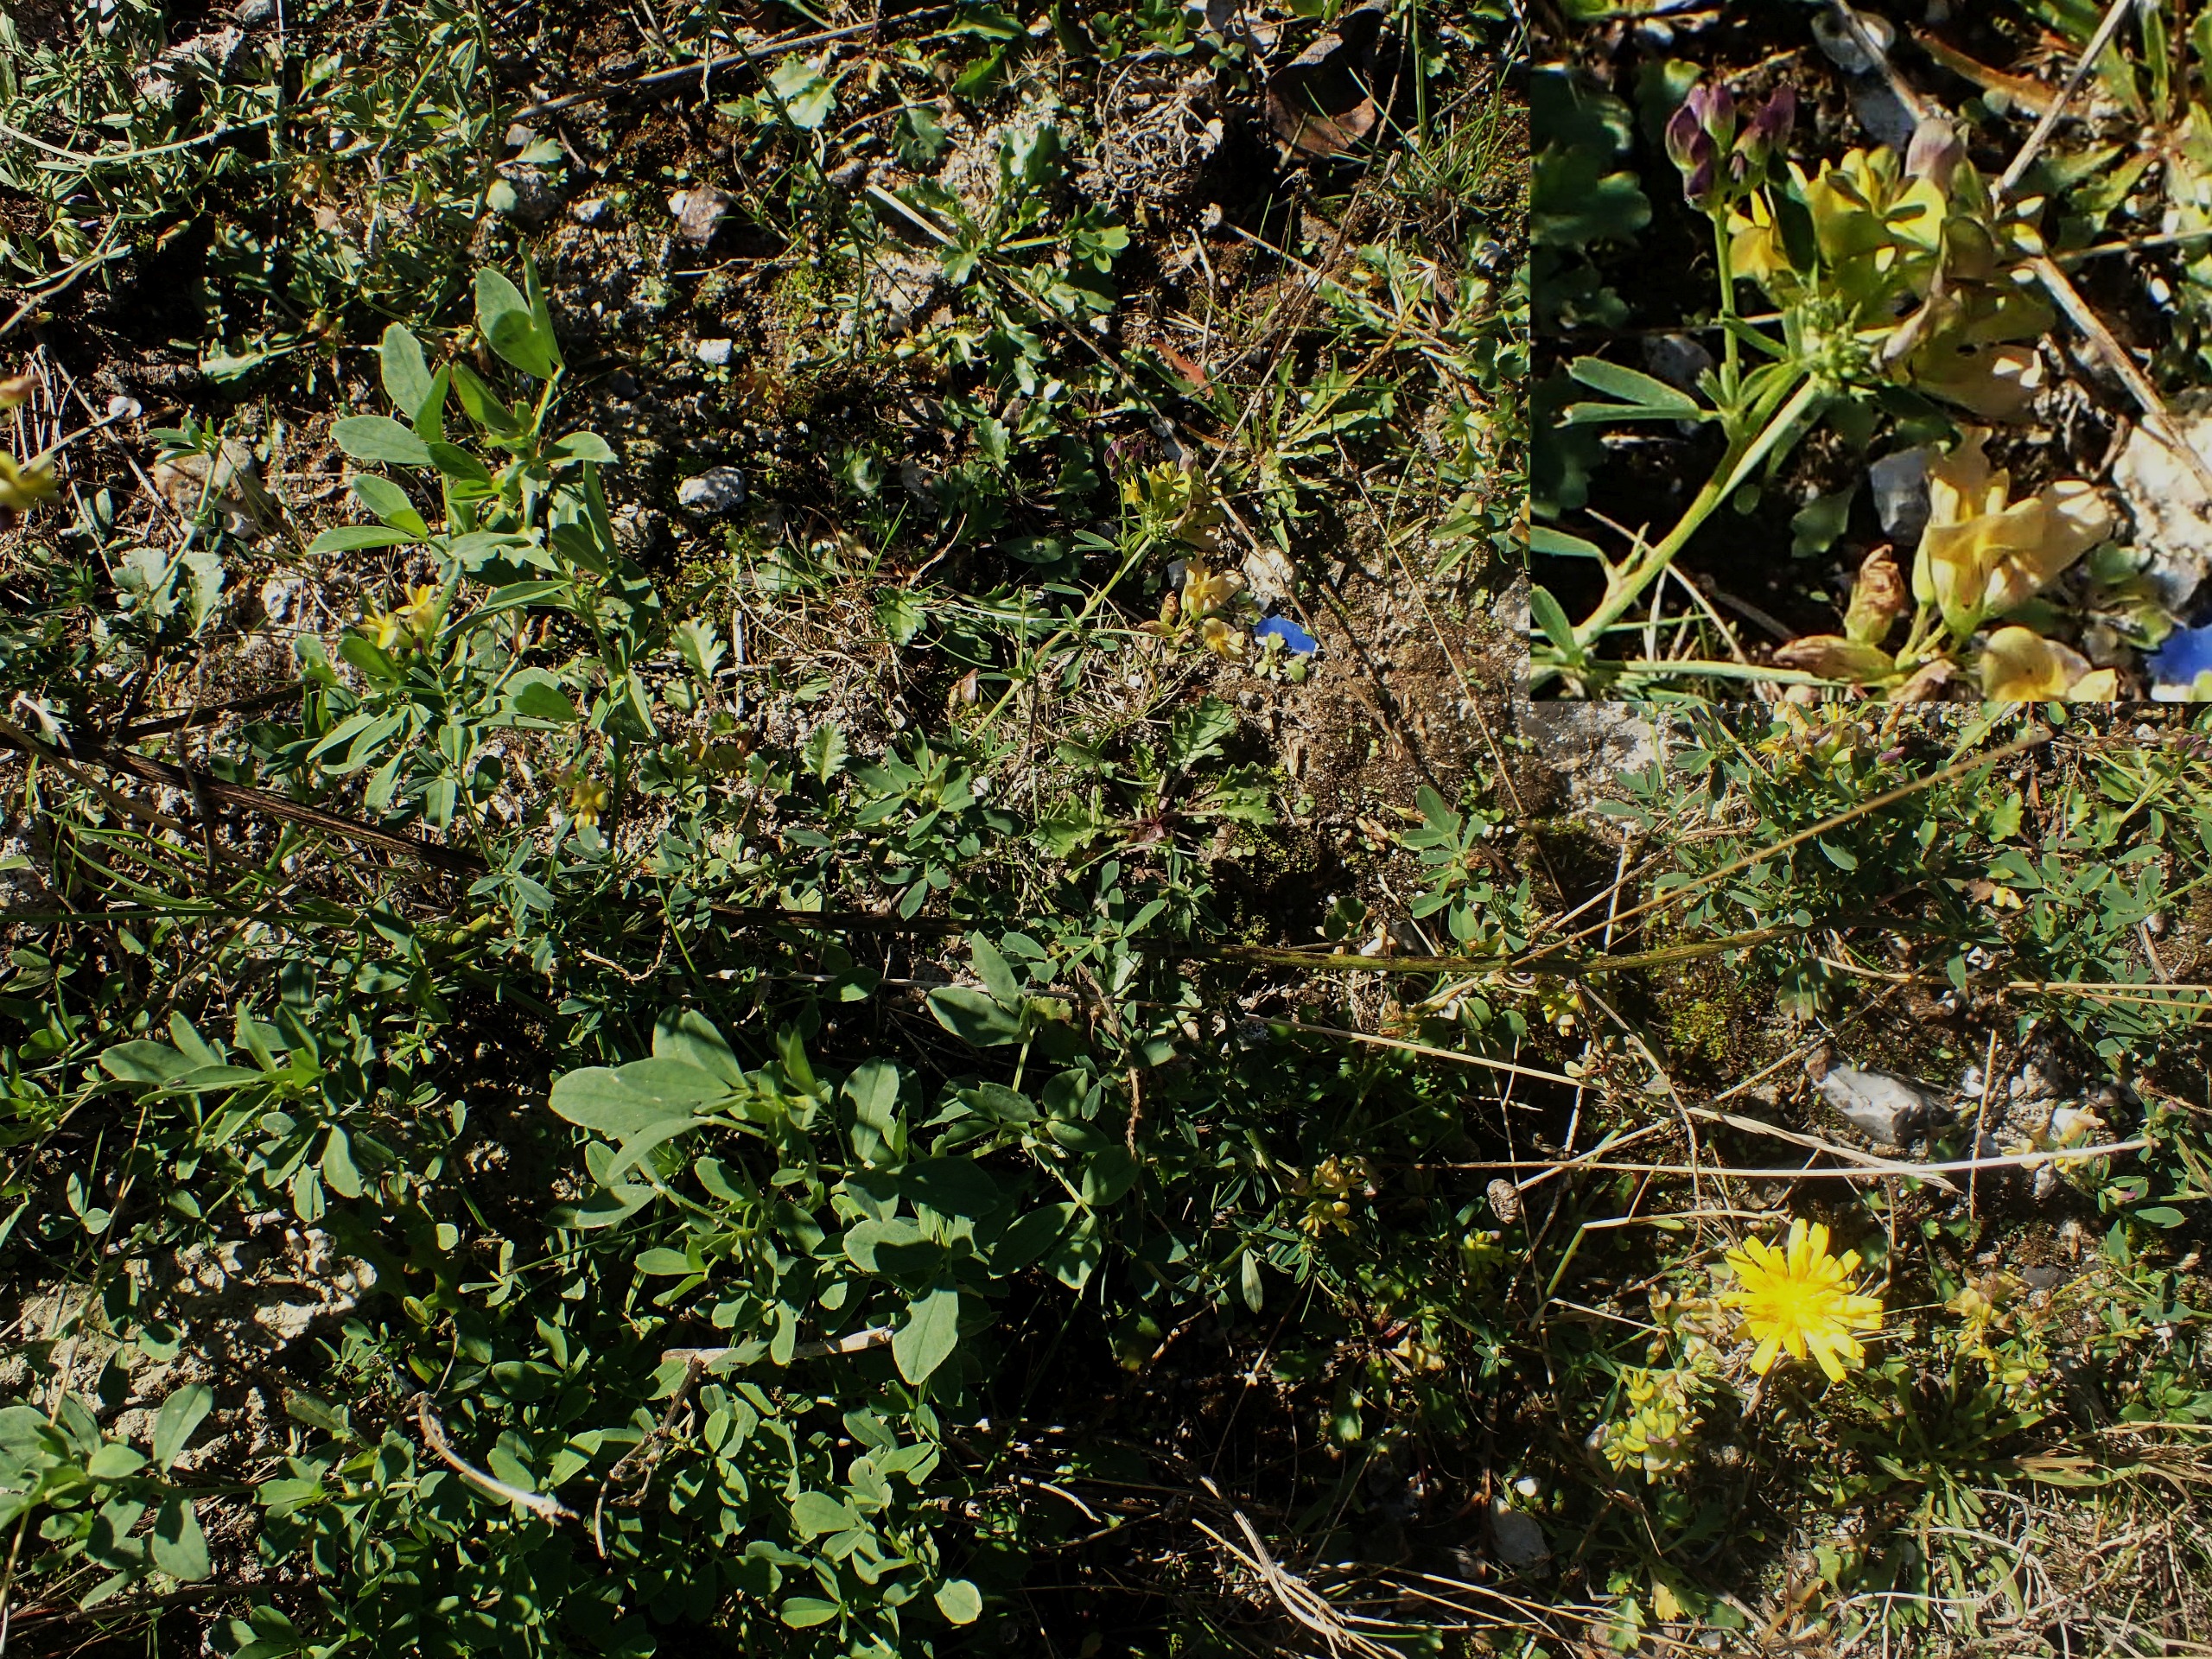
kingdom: Plantae
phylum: Tracheophyta
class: Magnoliopsida
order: Fabales
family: Fabaceae
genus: Medicago
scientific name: Medicago varia
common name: Sand-lucerne
